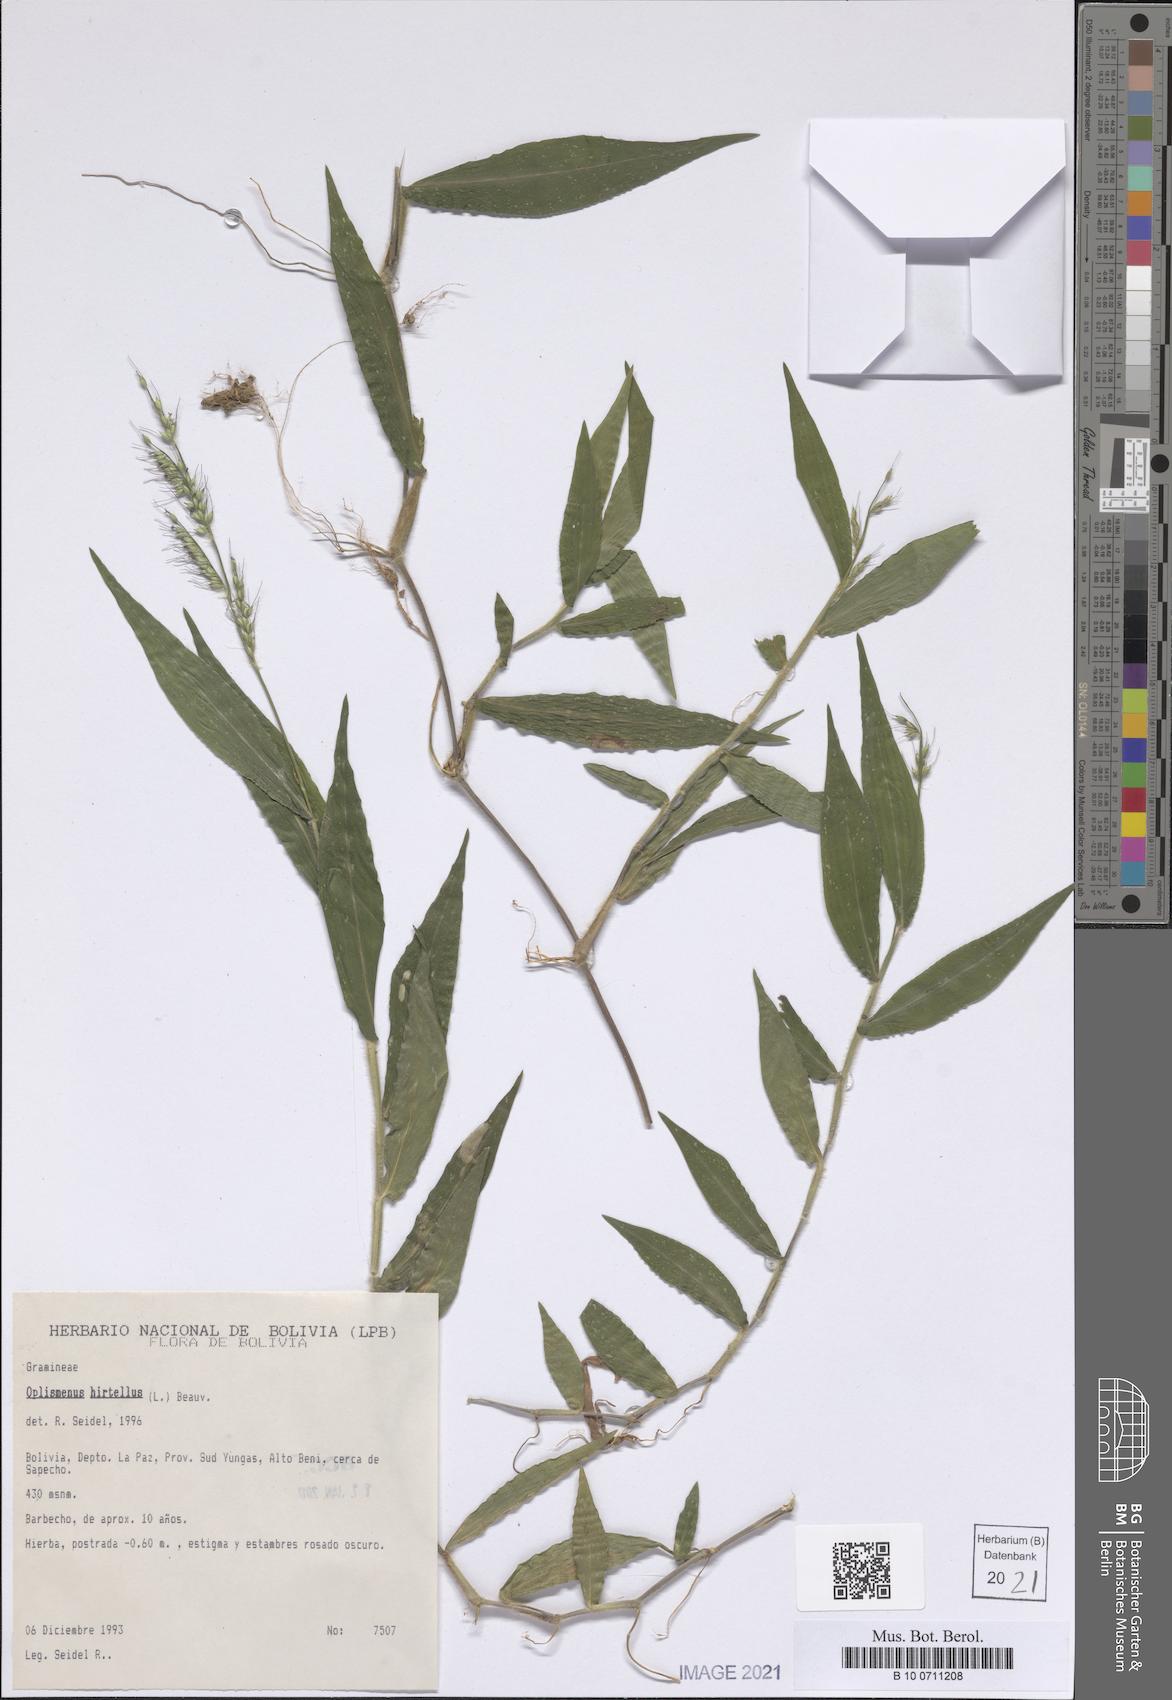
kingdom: Plantae
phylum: Tracheophyta
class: Liliopsida
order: Poales
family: Poaceae
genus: Oplismenus
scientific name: Oplismenus hirtellus
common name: Basketgrass
